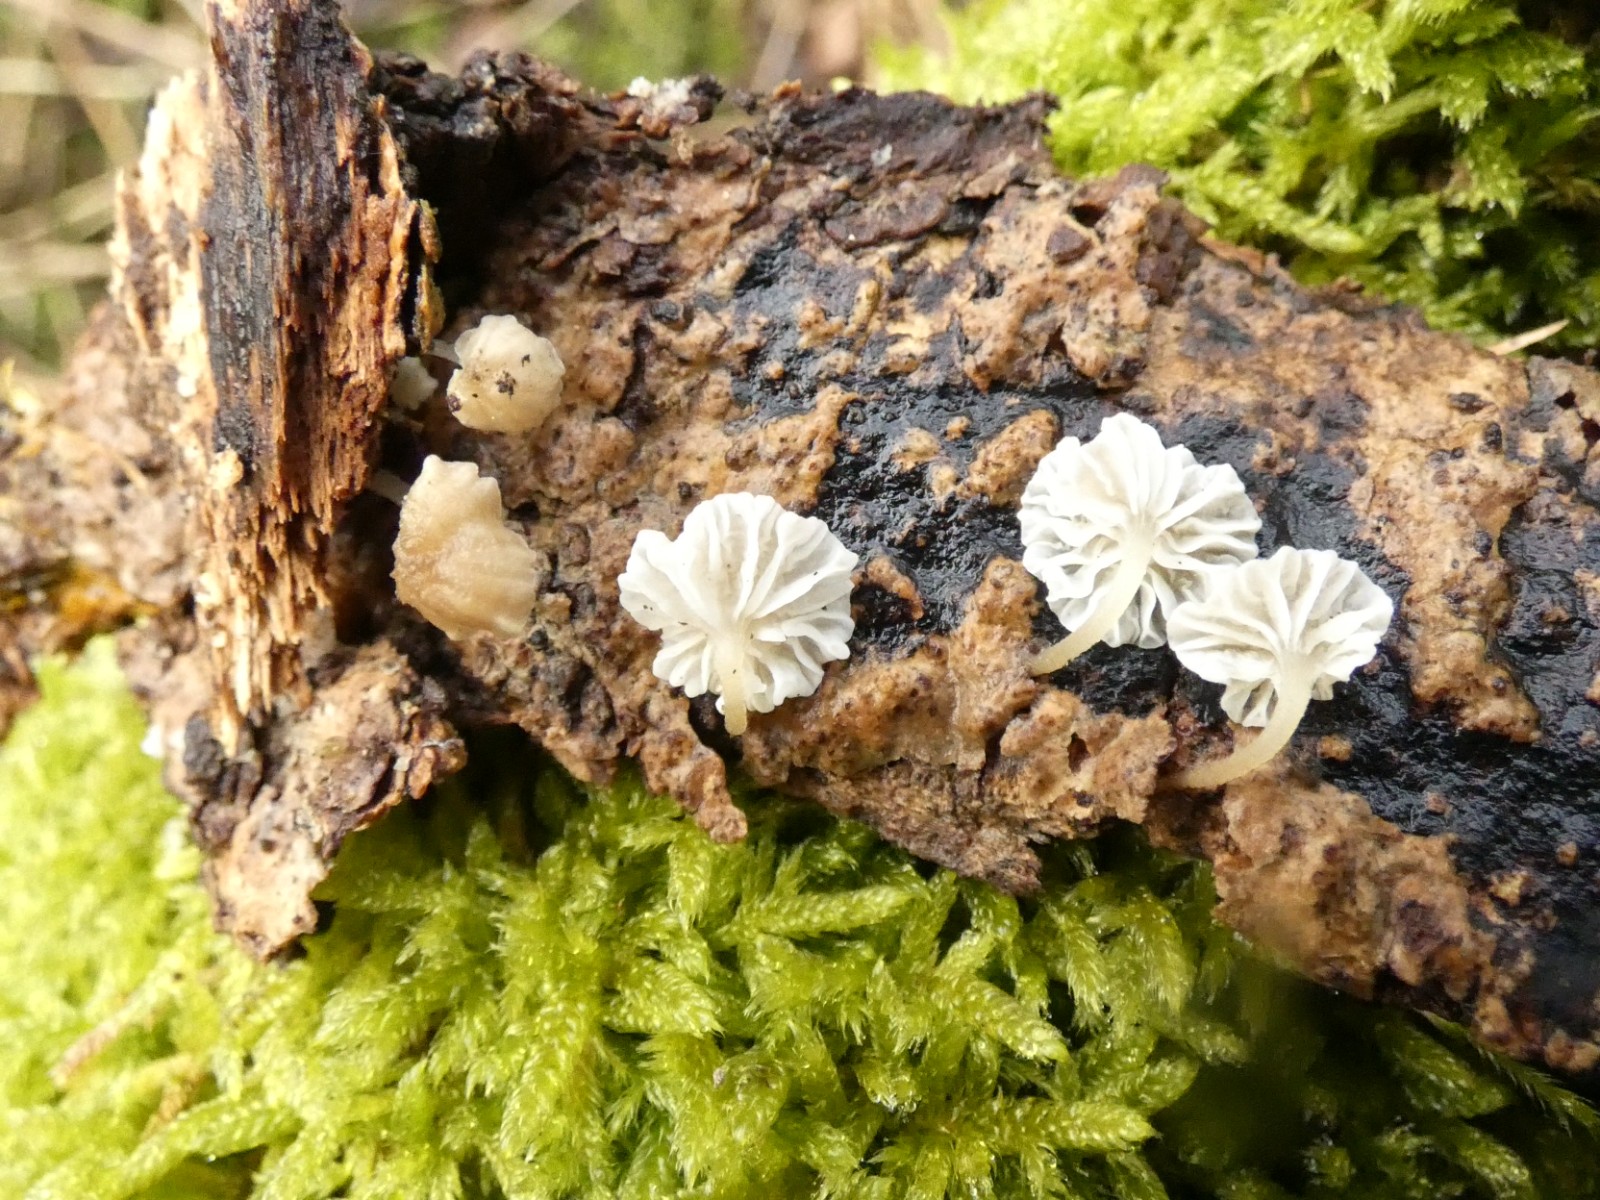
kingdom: Fungi
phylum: Basidiomycota
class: Agaricomycetes
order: Agaricales
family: Porotheleaceae
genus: Phloeomana
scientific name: Phloeomana speirea
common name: kvist-huesvamp
